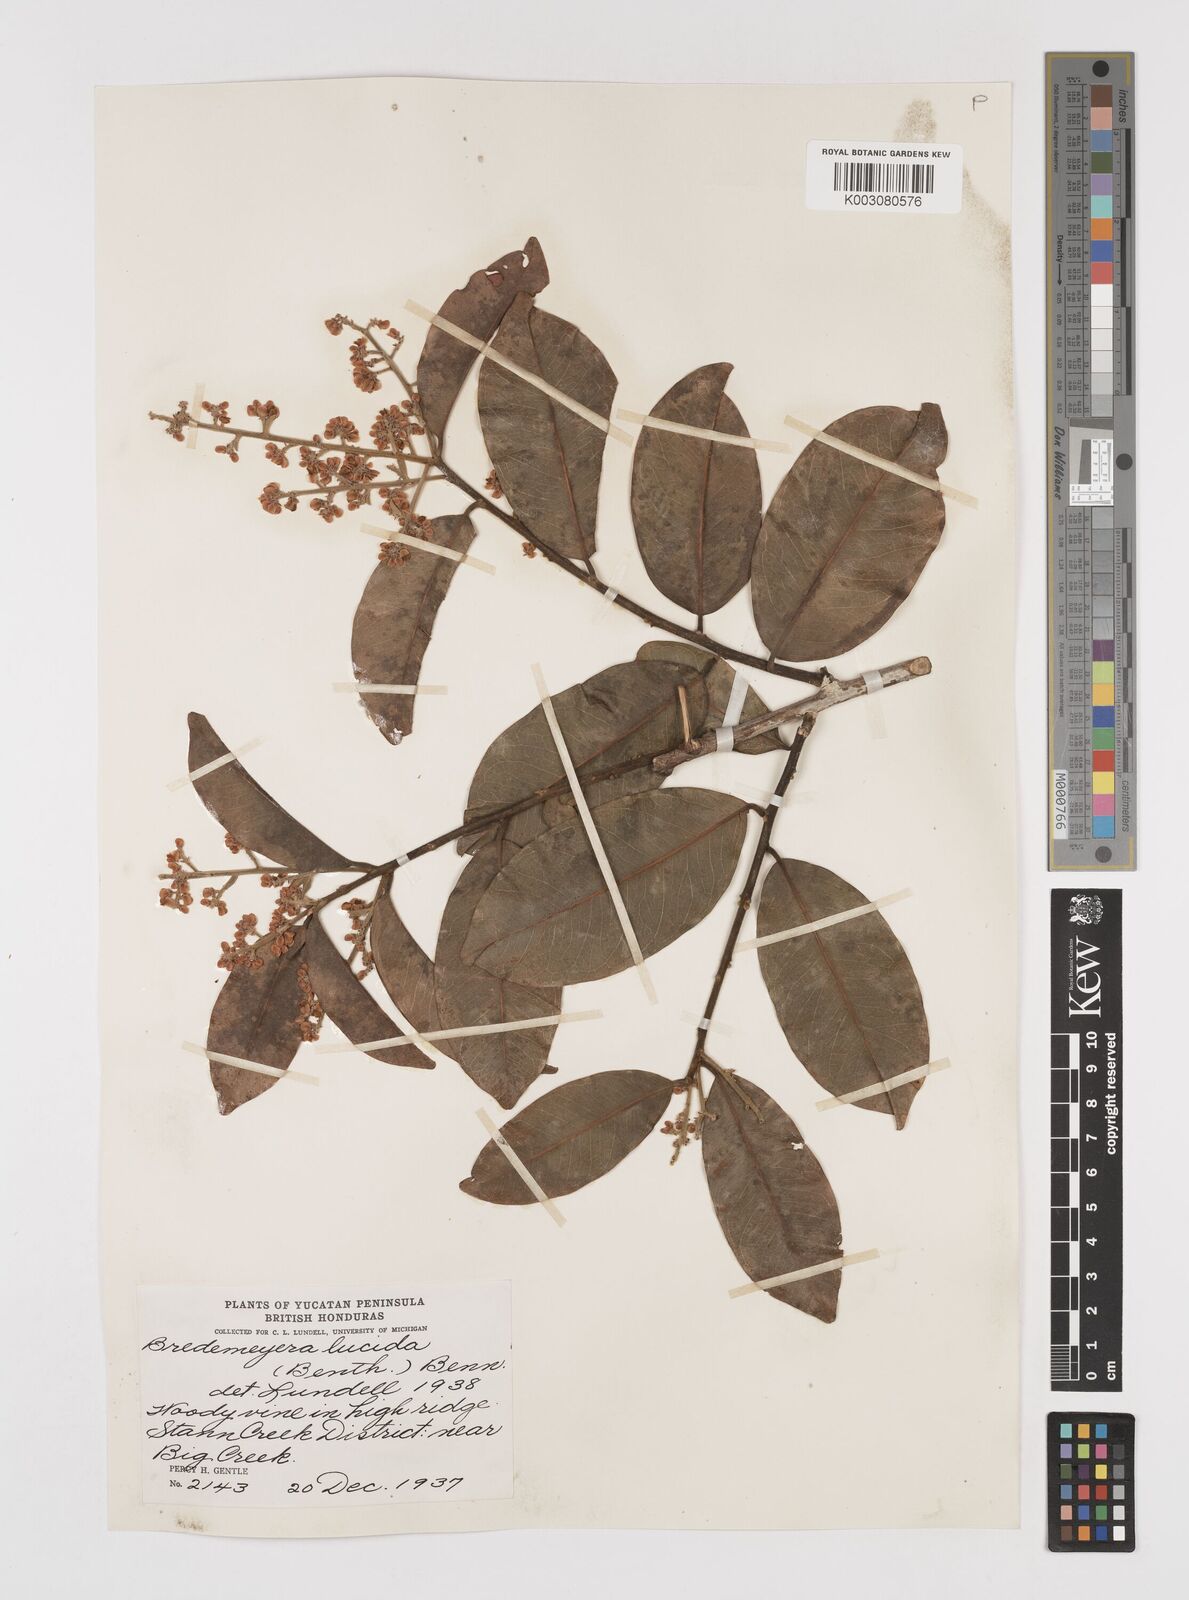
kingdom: Plantae
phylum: Tracheophyta
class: Magnoliopsida
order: Fabales
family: Polygalaceae
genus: Bredemeyera
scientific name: Bredemeyera lucida
